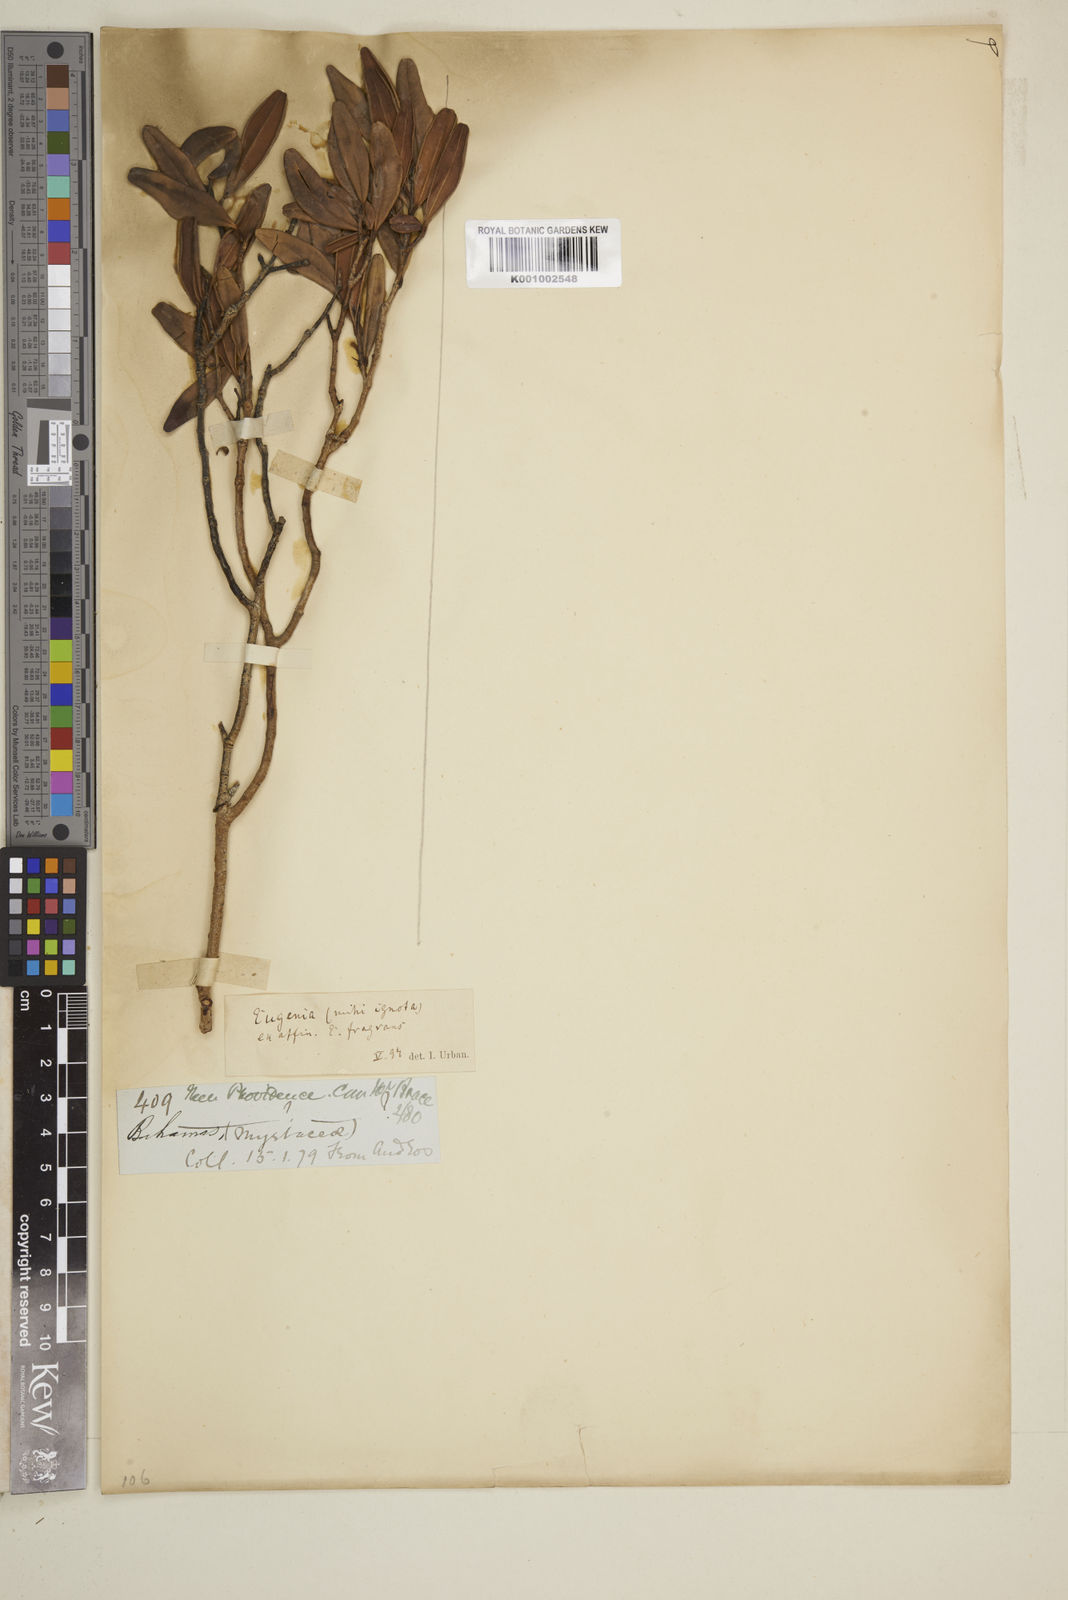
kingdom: Plantae
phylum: Tracheophyta
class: Magnoliopsida
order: Myrtales
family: Myrtaceae
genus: Myrcianthes
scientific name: Myrcianthes fragrans
